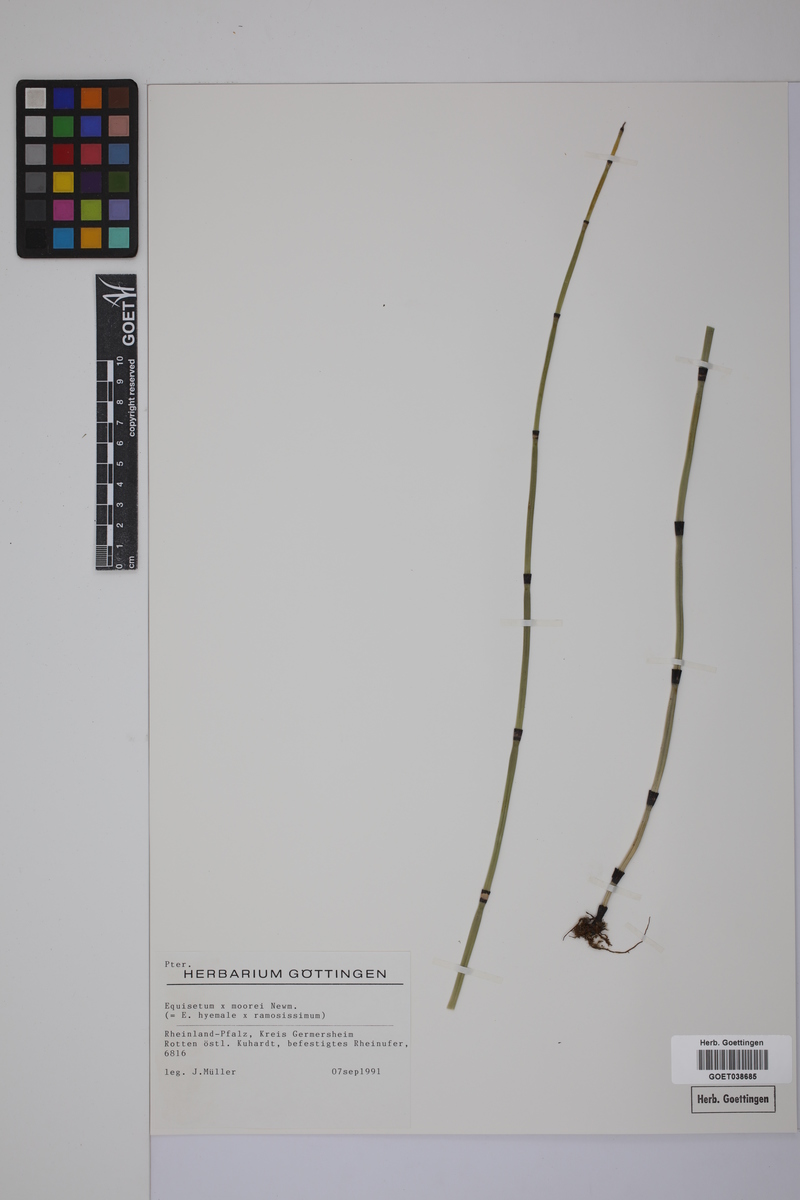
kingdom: Plantae
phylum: Tracheophyta
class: Polypodiopsida
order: Equisetales
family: Equisetaceae
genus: Equisetum
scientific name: Equisetum hyemale
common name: Rough horsetail
